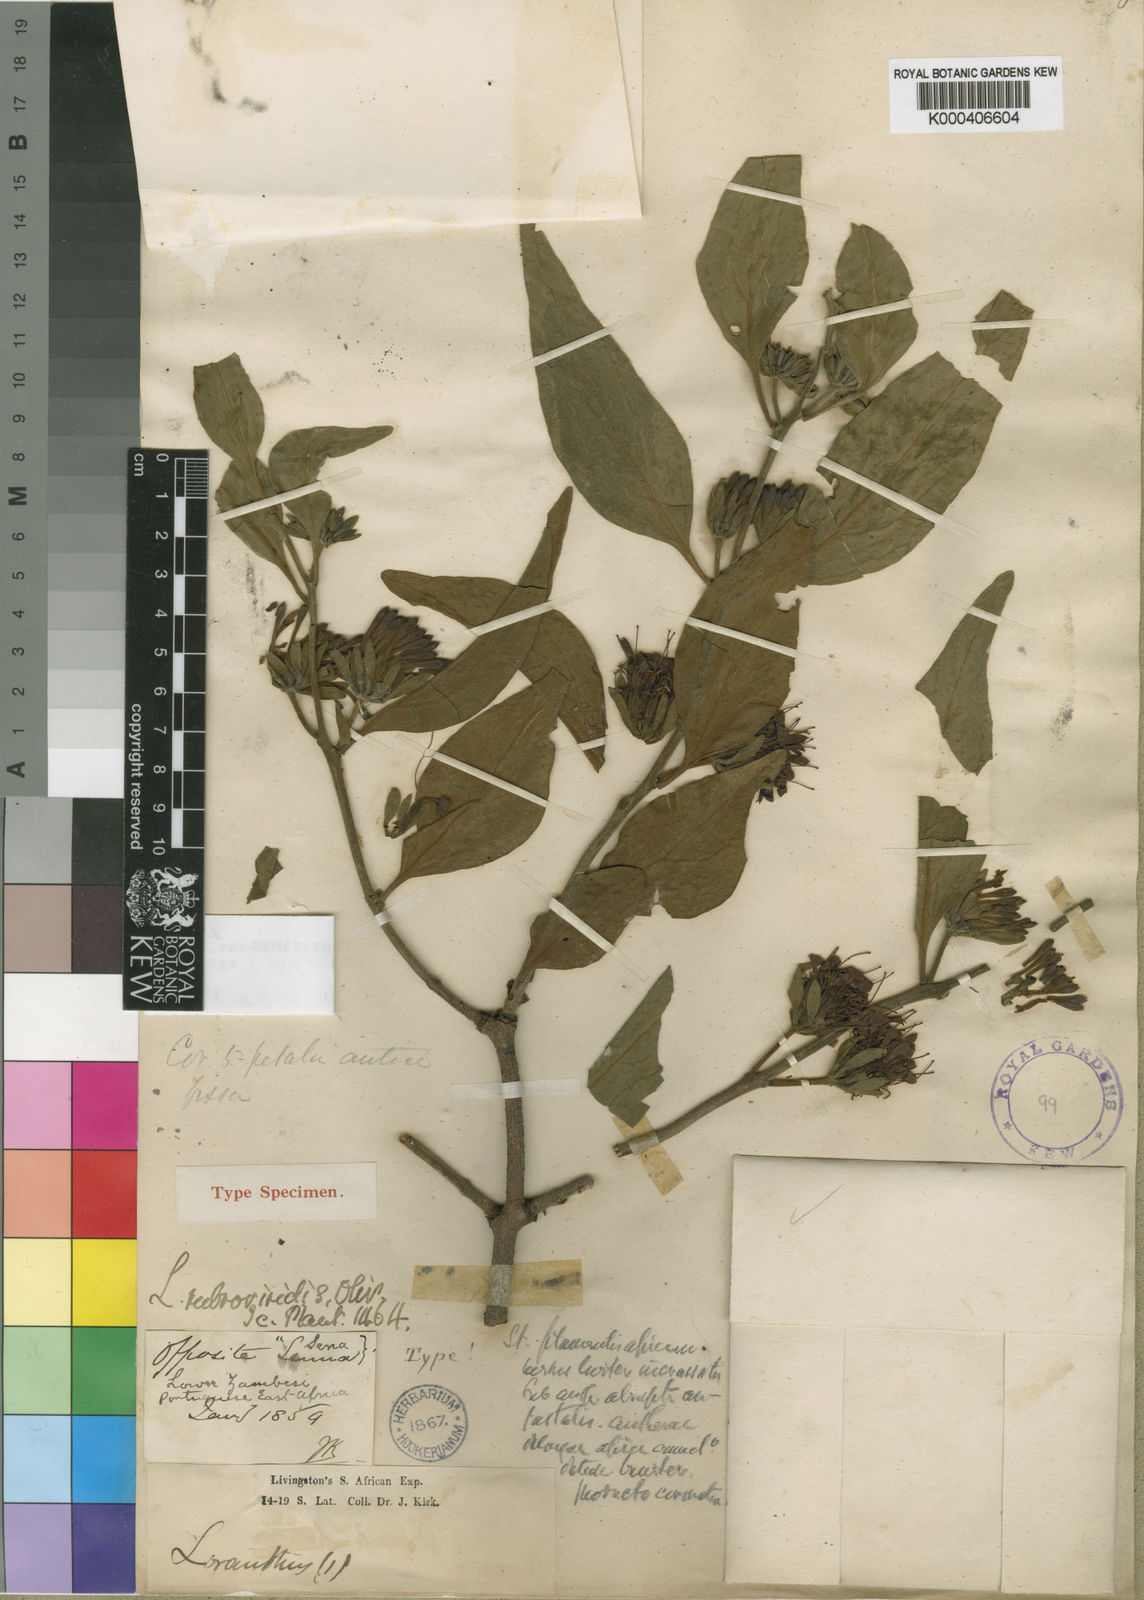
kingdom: Plantae
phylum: Tracheophyta
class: Magnoliopsida
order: Santalales
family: Loranthaceae
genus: Oliverella
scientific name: Oliverella rubroviridis
